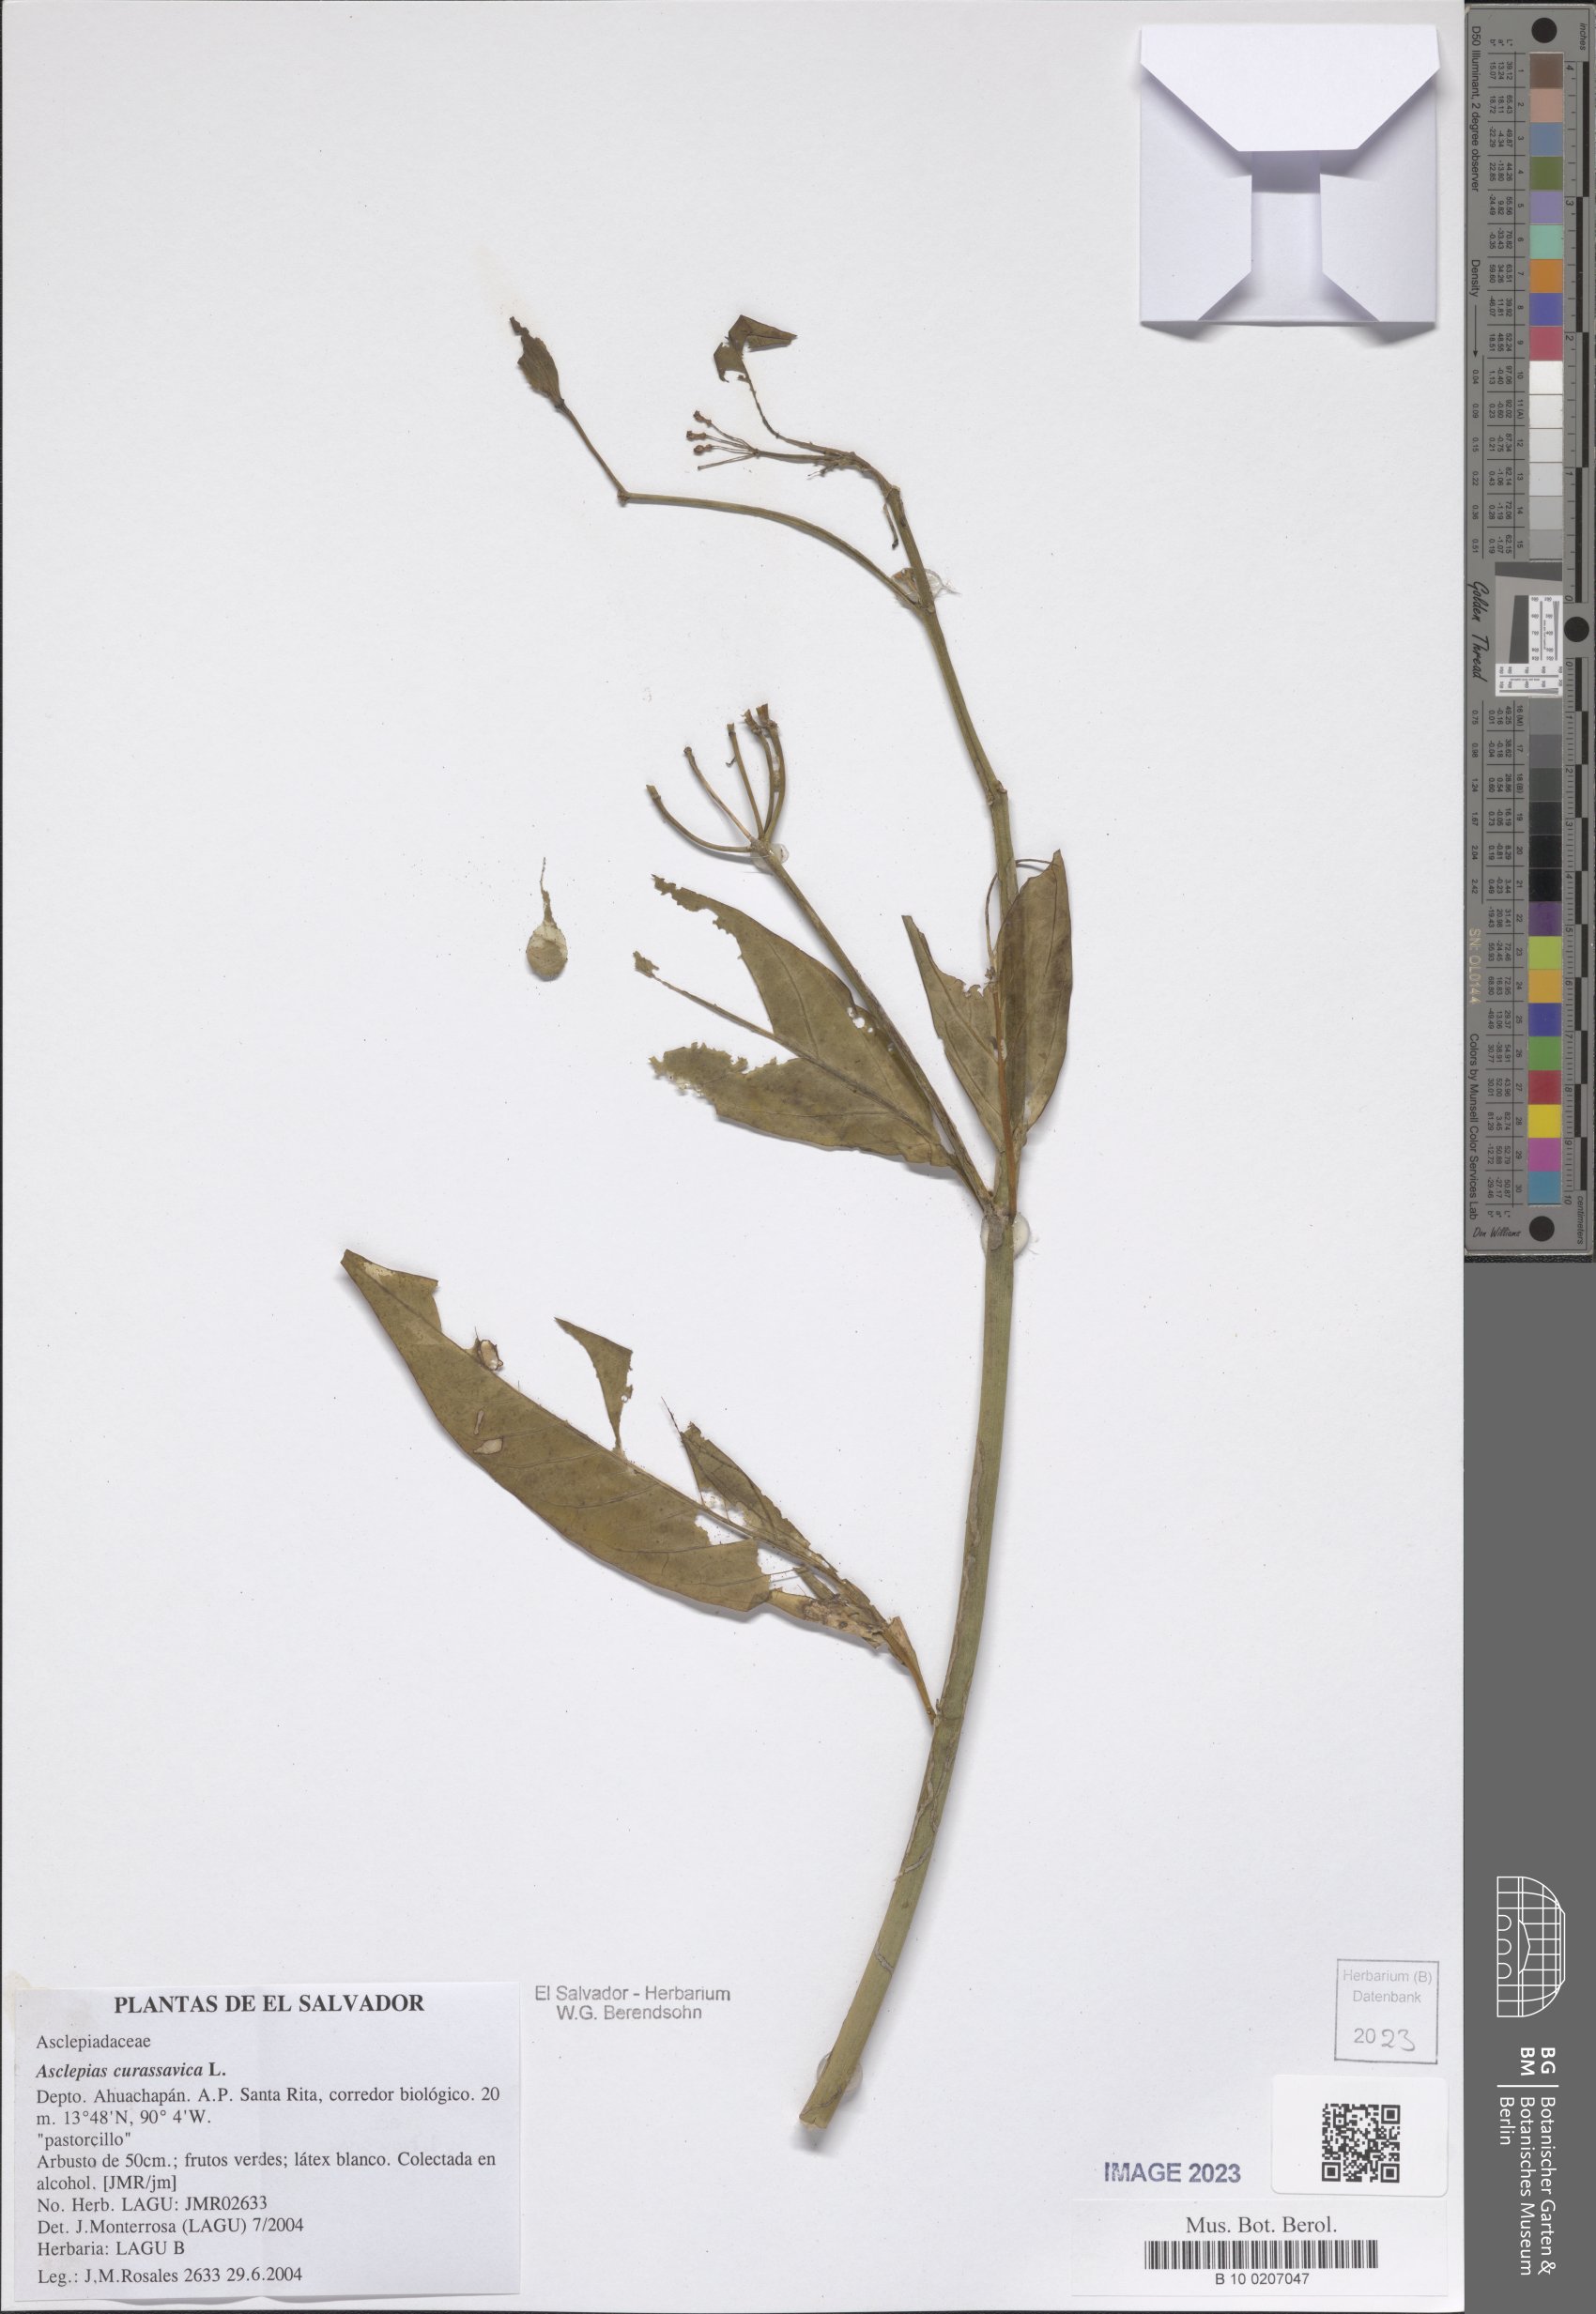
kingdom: Plantae
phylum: Tracheophyta
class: Magnoliopsida
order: Gentianales
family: Apocynaceae
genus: Asclepias
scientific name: Asclepias curassavica
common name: Bloodflower
